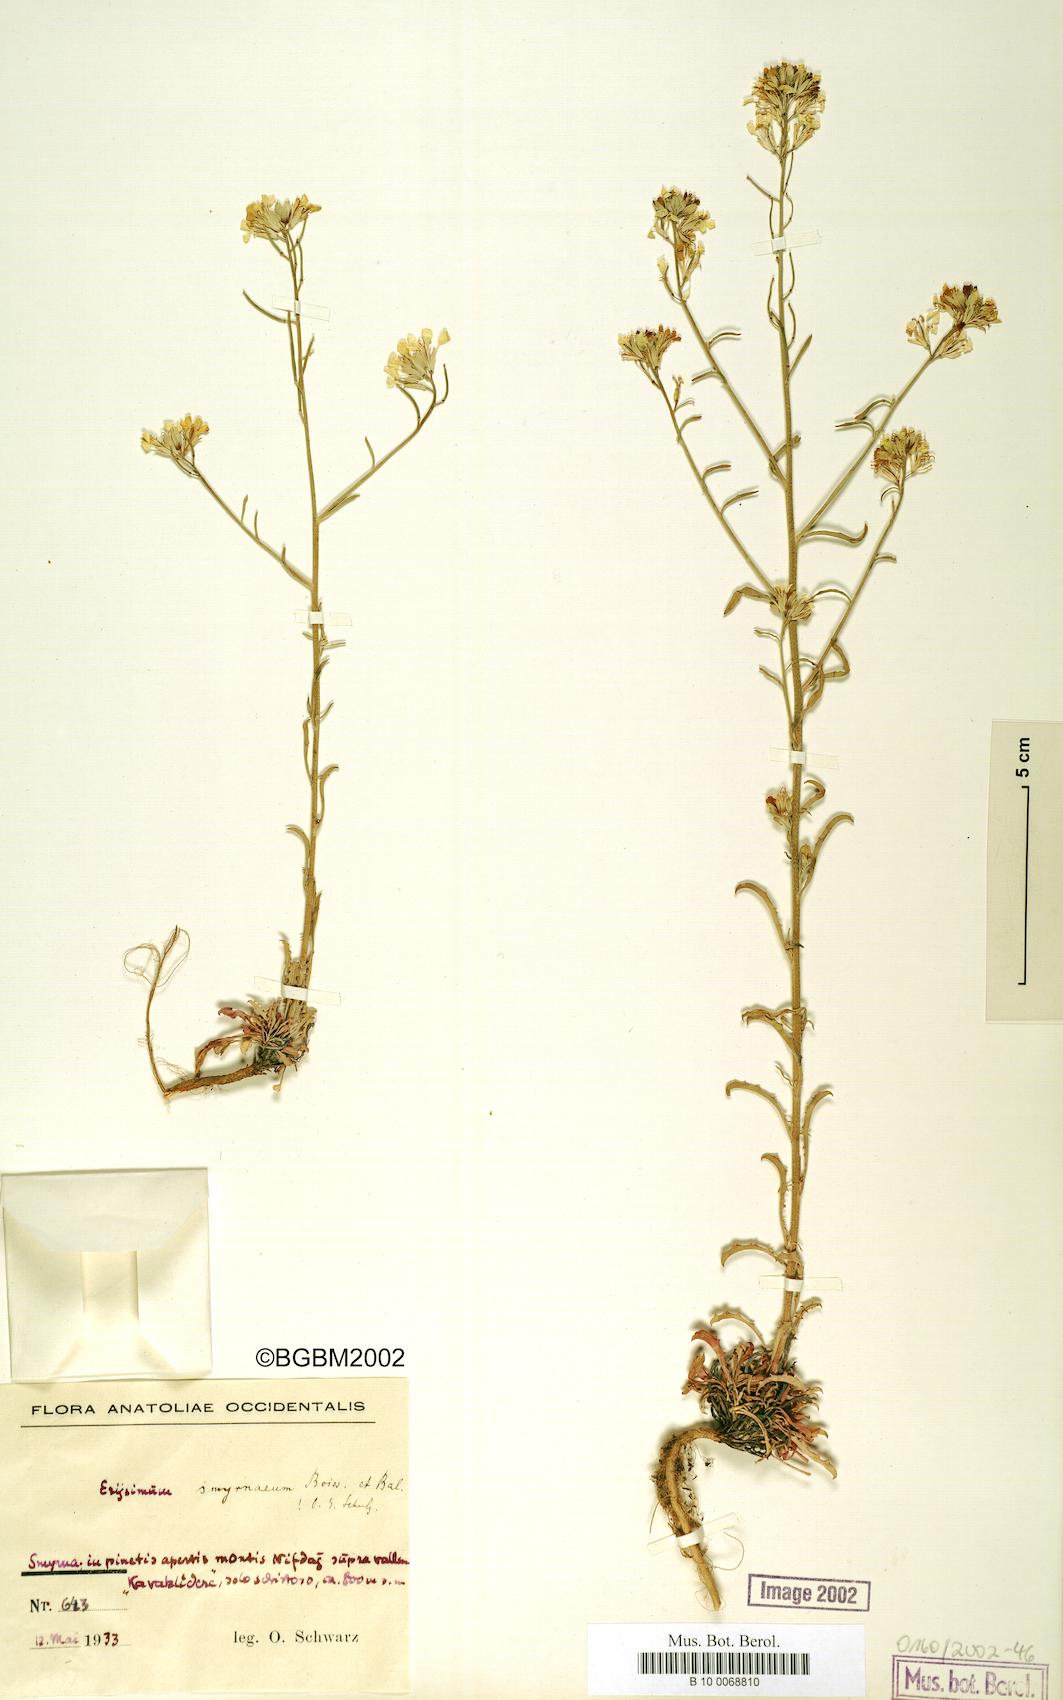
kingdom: Plantae
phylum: Tracheophyta
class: Magnoliopsida
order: Brassicales
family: Brassicaceae
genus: Erysimum
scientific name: Erysimum smyrnaeum
